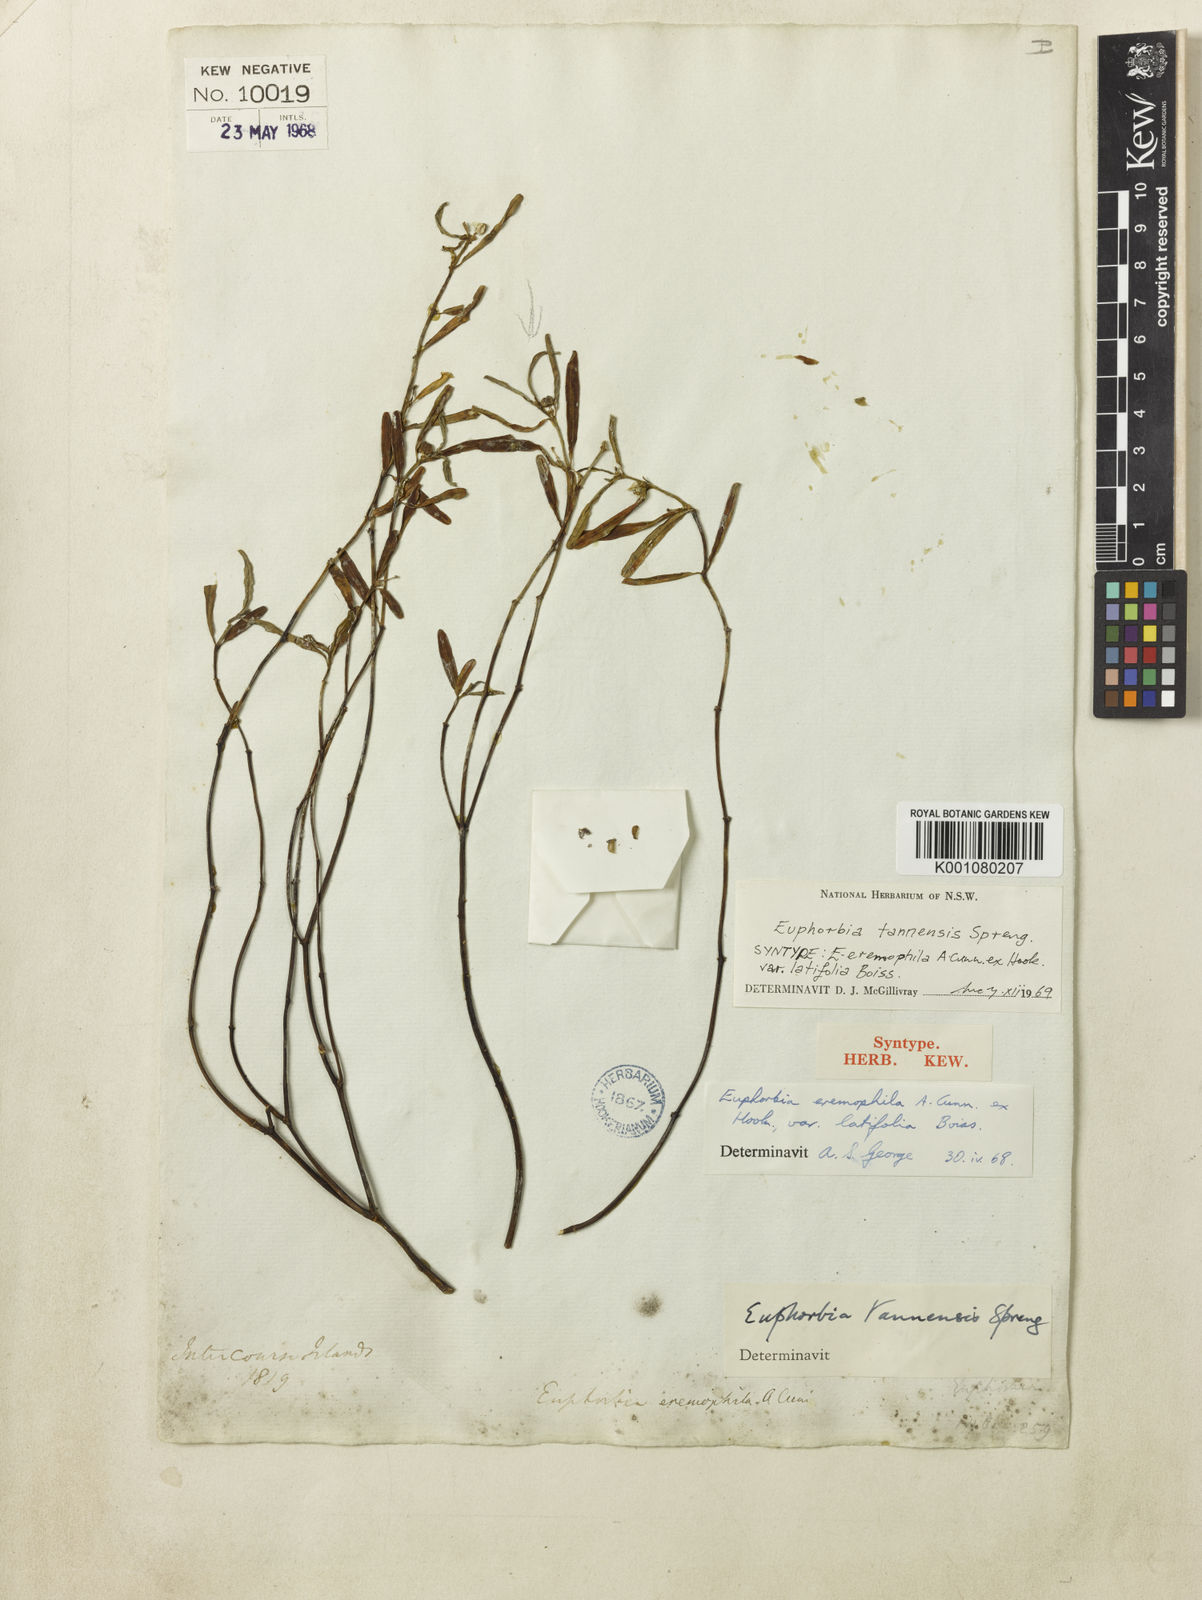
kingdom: Plantae
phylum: Tracheophyta
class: Magnoliopsida
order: Malpighiales
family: Euphorbiaceae
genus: Euphorbia
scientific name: Euphorbia
